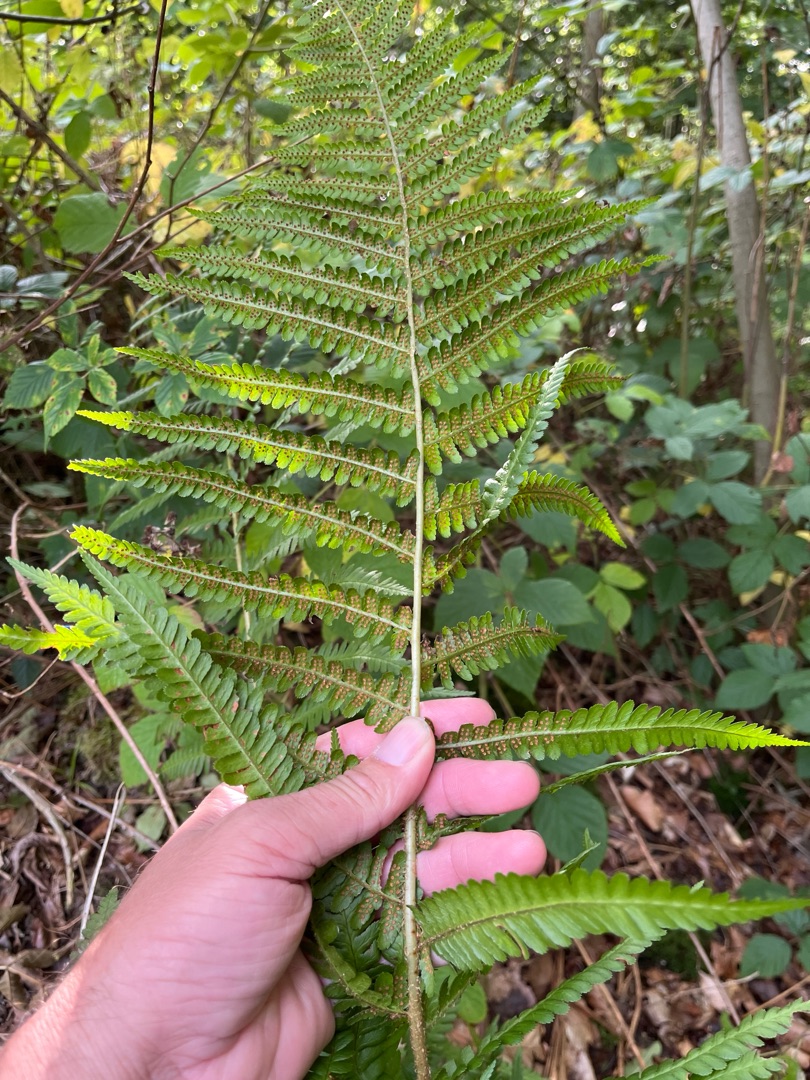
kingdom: Plantae
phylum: Tracheophyta
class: Polypodiopsida
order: Polypodiales
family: Dryopteridaceae
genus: Dryopteris
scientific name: Dryopteris filix-mas
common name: Almindelig mangeløv
